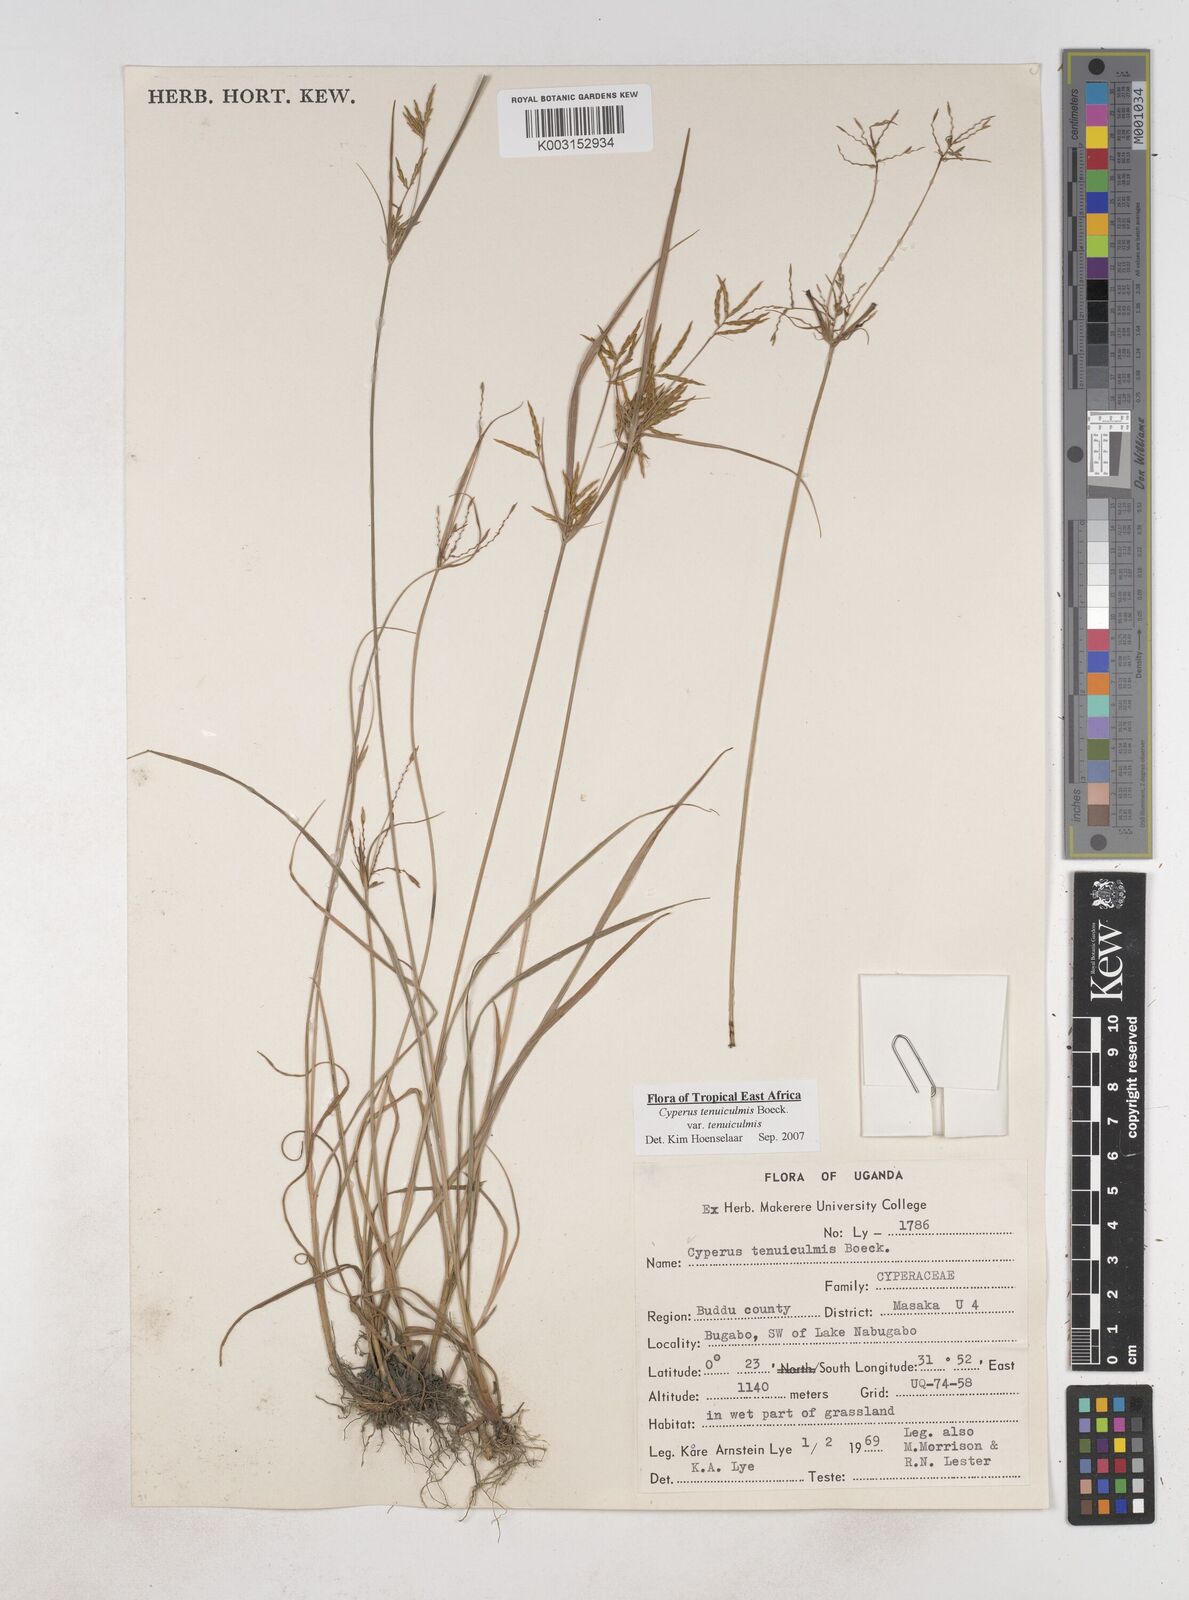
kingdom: Plantae
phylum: Tracheophyta
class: Liliopsida
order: Poales
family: Cyperaceae
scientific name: Cyperaceae
